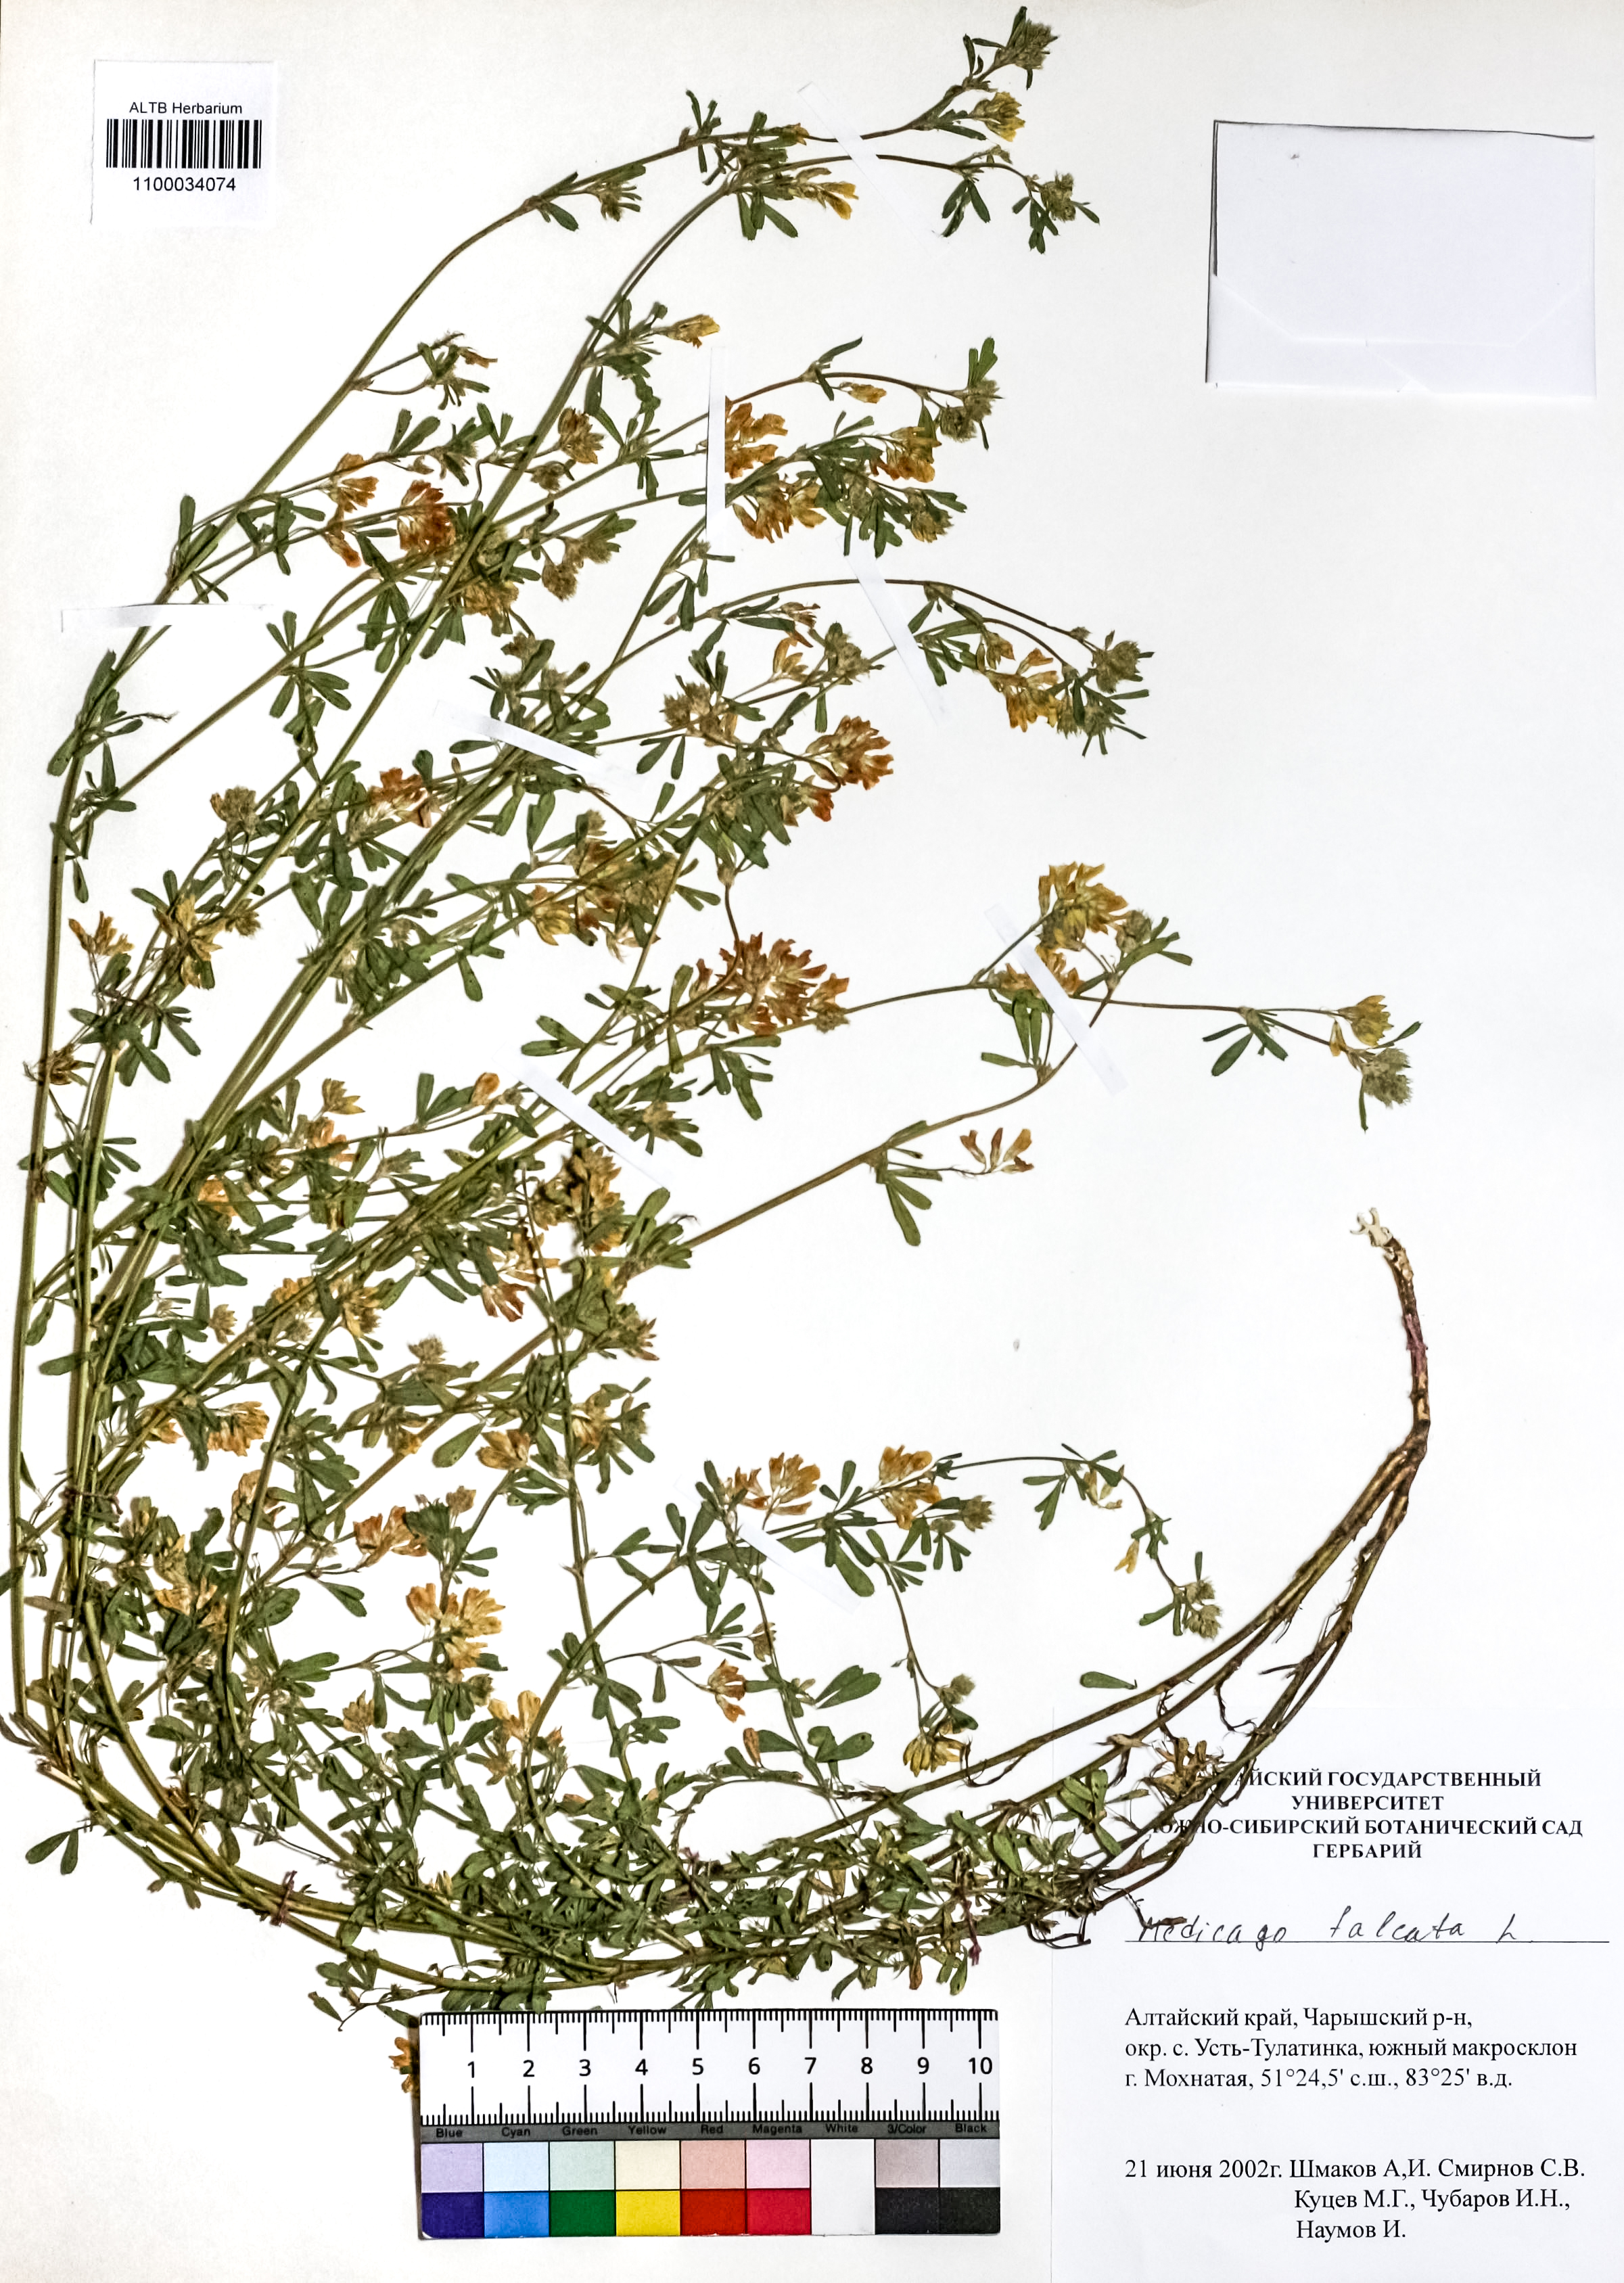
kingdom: Plantae
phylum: Tracheophyta
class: Magnoliopsida
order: Fabales
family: Fabaceae
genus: Medicago
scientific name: Medicago falcata
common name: Sickle medick
